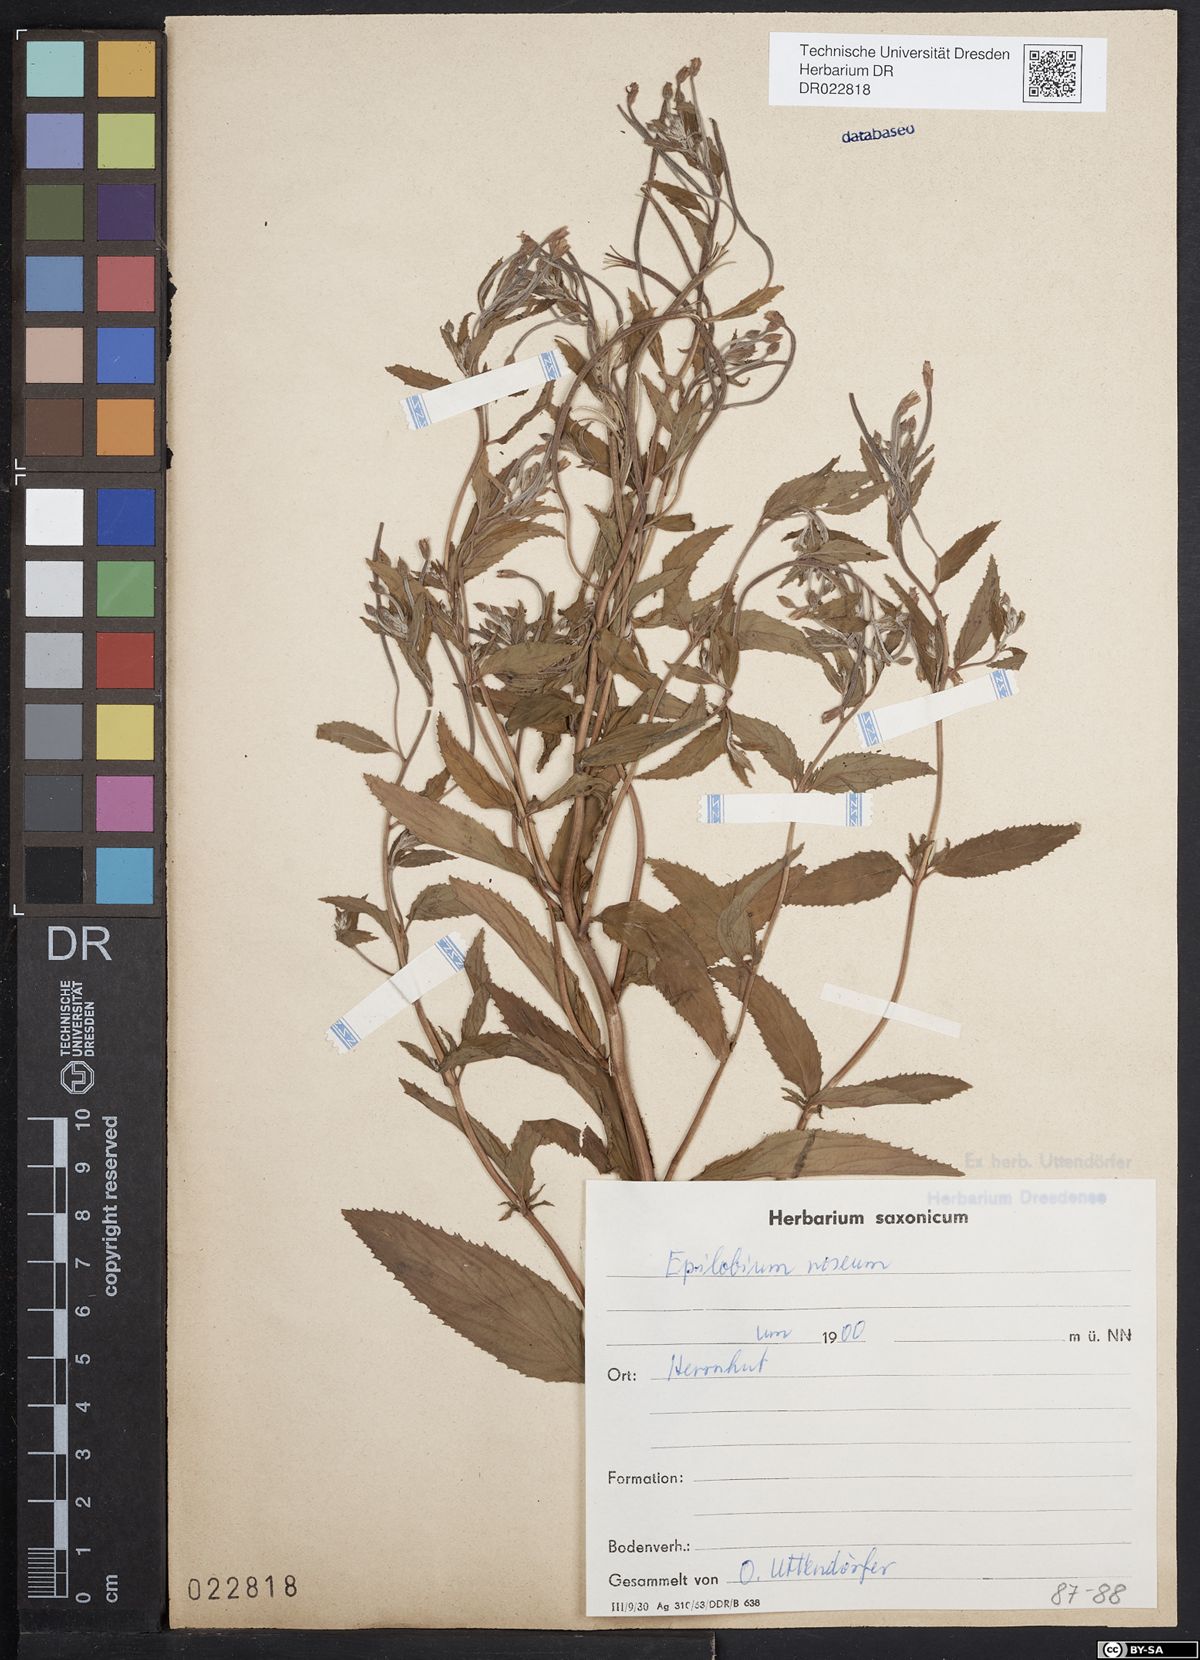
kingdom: Plantae
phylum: Tracheophyta
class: Magnoliopsida
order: Myrtales
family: Onagraceae
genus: Epilobium
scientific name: Epilobium roseum
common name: Pale willowherb
